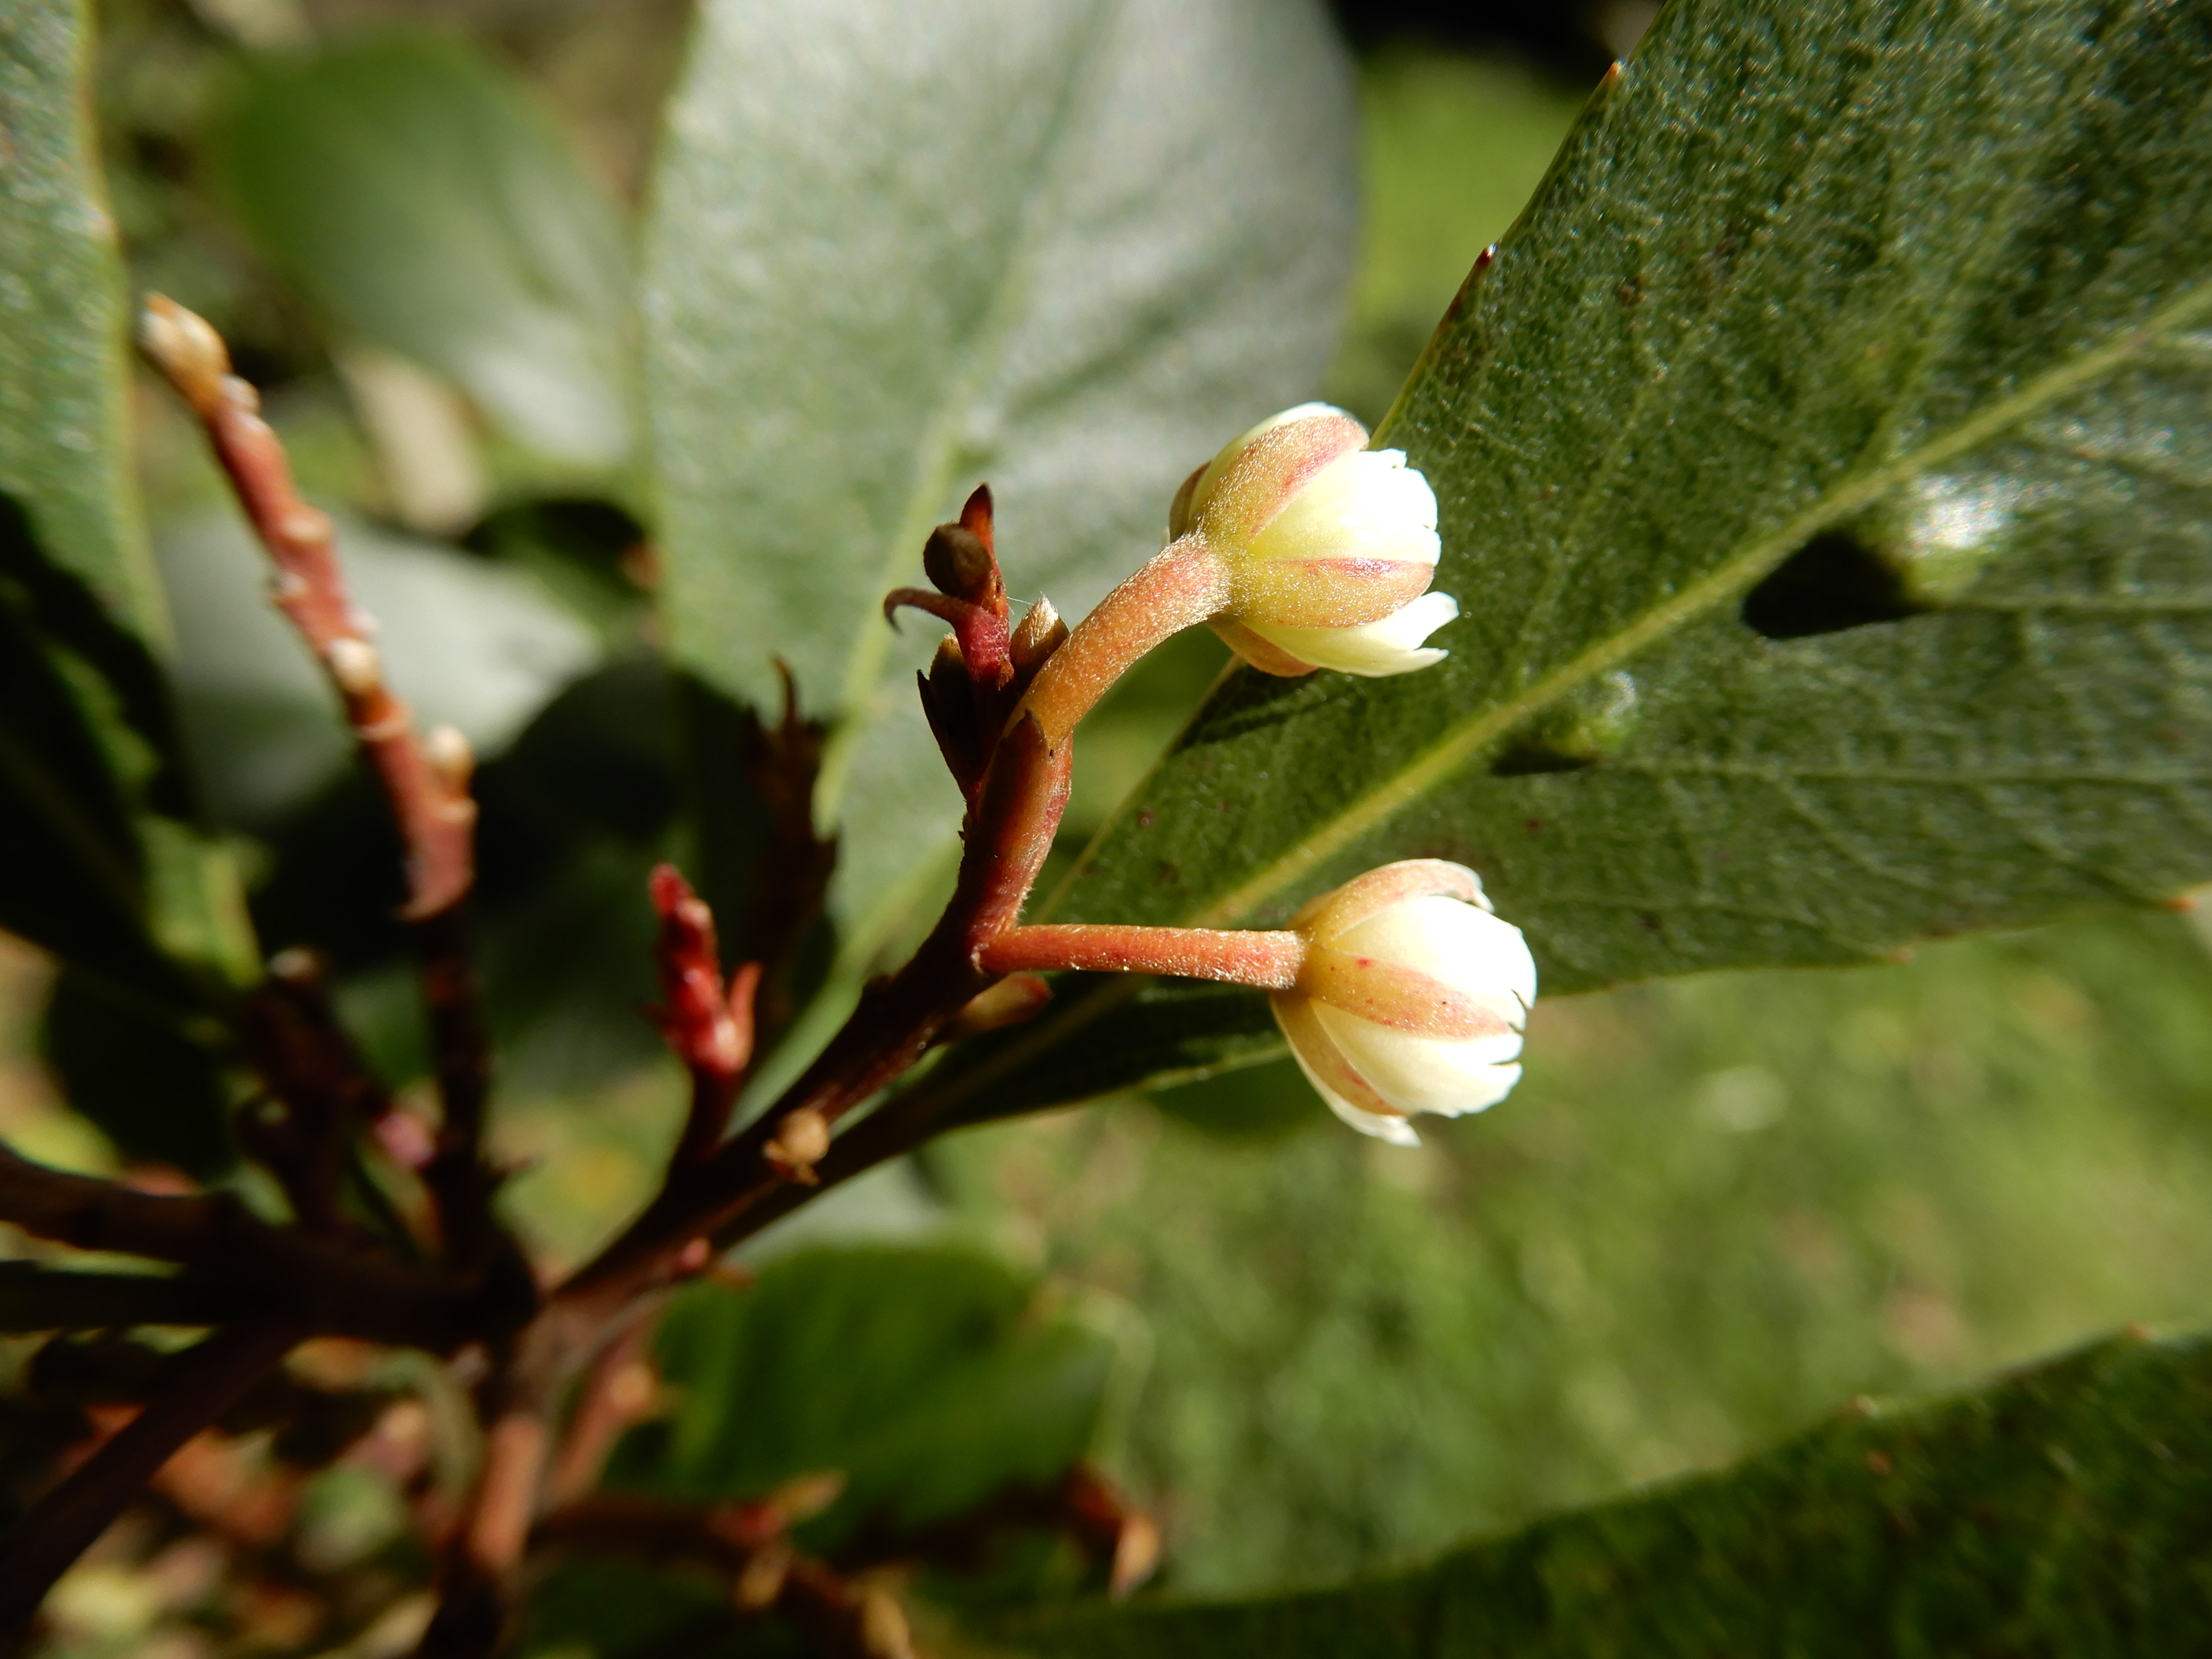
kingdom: Plantae
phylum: Tracheophyta
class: Magnoliopsida
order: Oxalidales
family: Elaeocarpaceae
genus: Elaeocarpus
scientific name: Elaeocarpus dentatus
